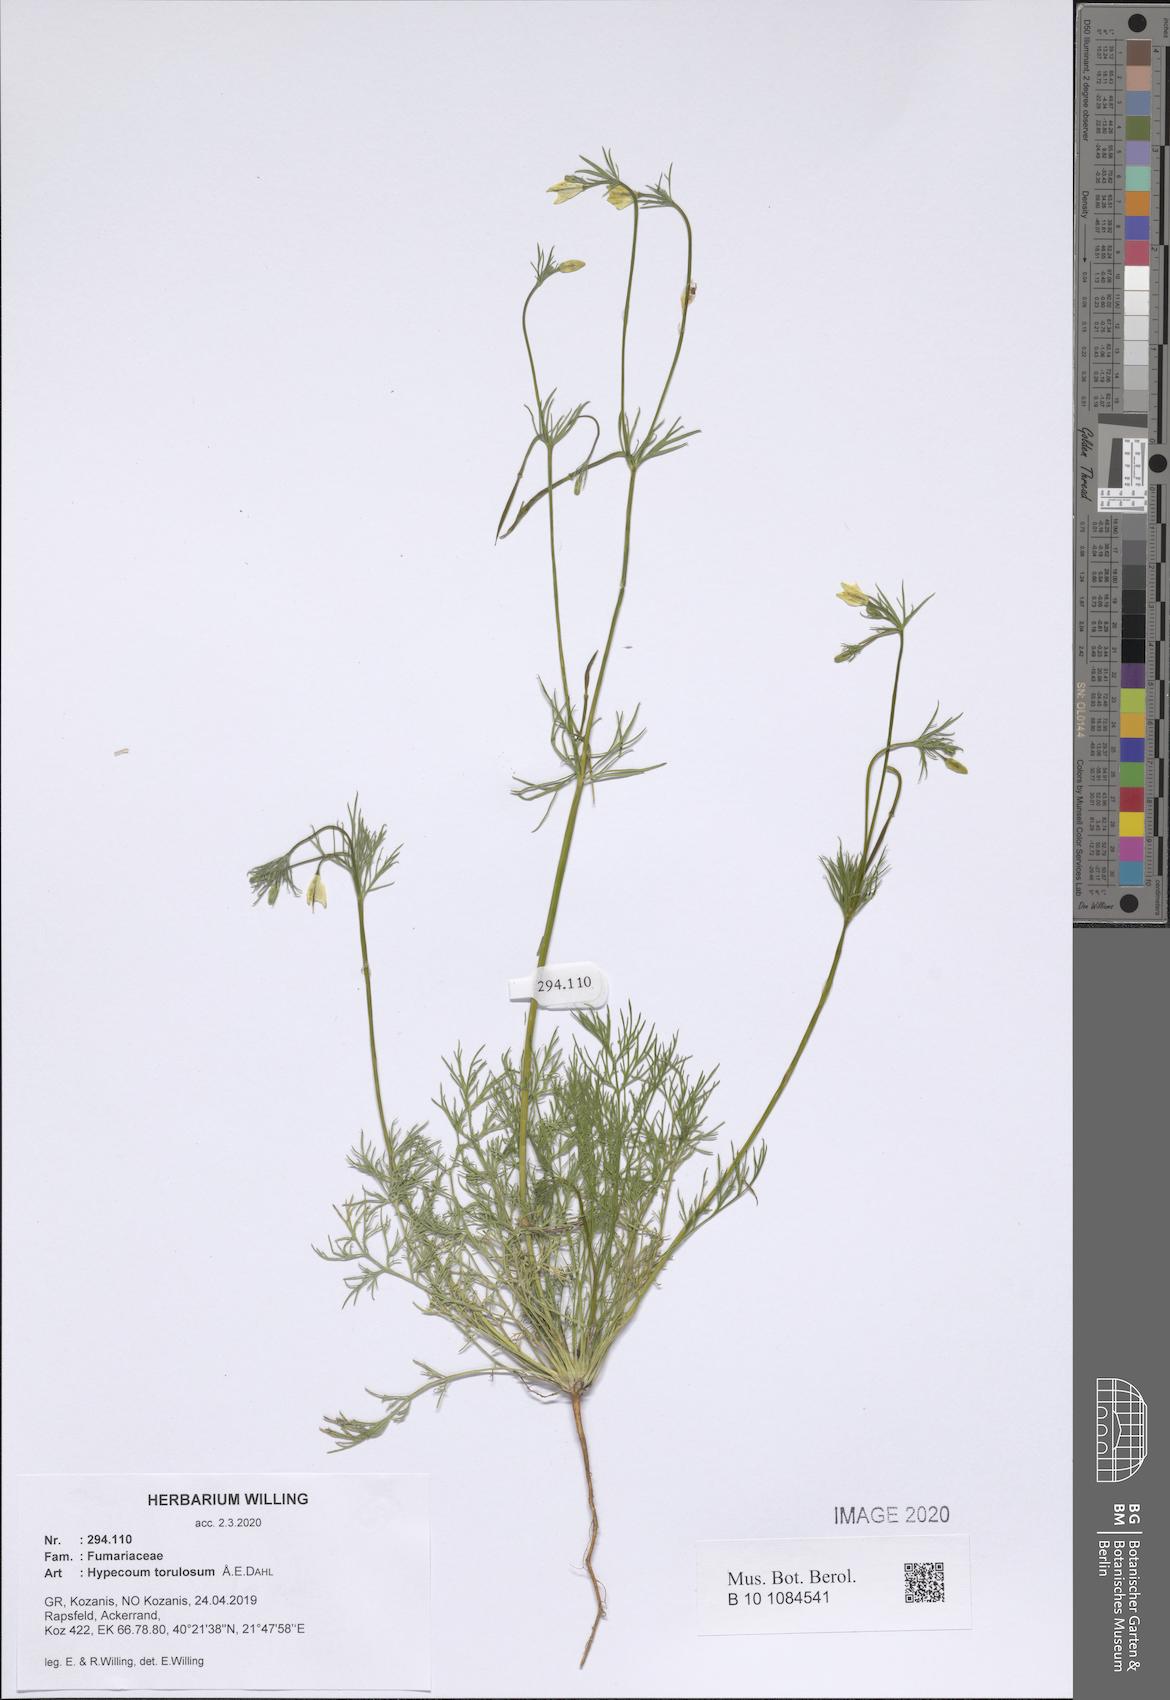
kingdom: Plantae
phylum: Tracheophyta
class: Magnoliopsida
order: Ranunculales
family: Papaveraceae
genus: Hypecoum
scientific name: Hypecoum torulosum
